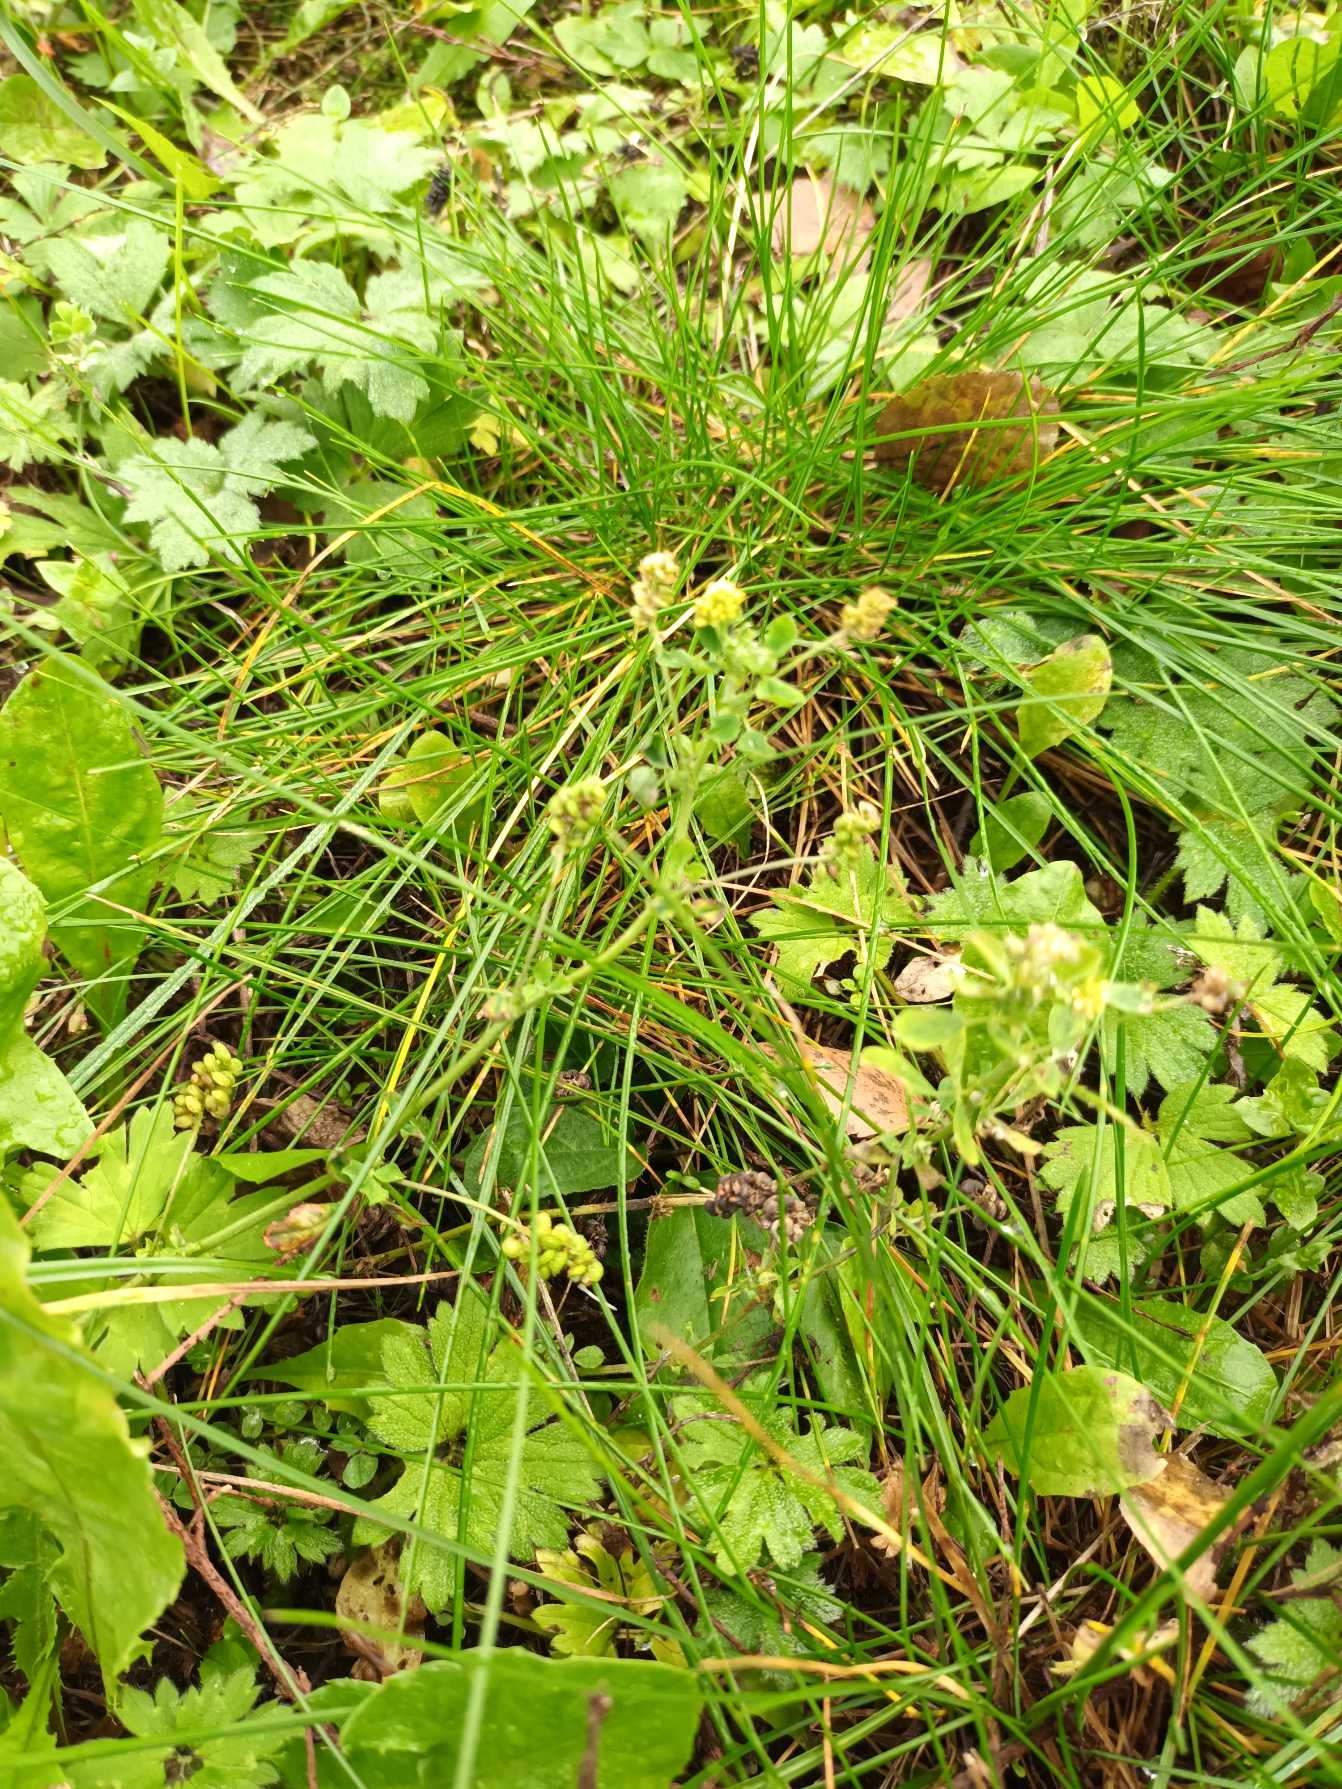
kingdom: Plantae
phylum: Tracheophyta
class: Magnoliopsida
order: Fabales
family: Fabaceae
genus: Medicago
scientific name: Medicago lupulina
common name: Humle-sneglebælg
